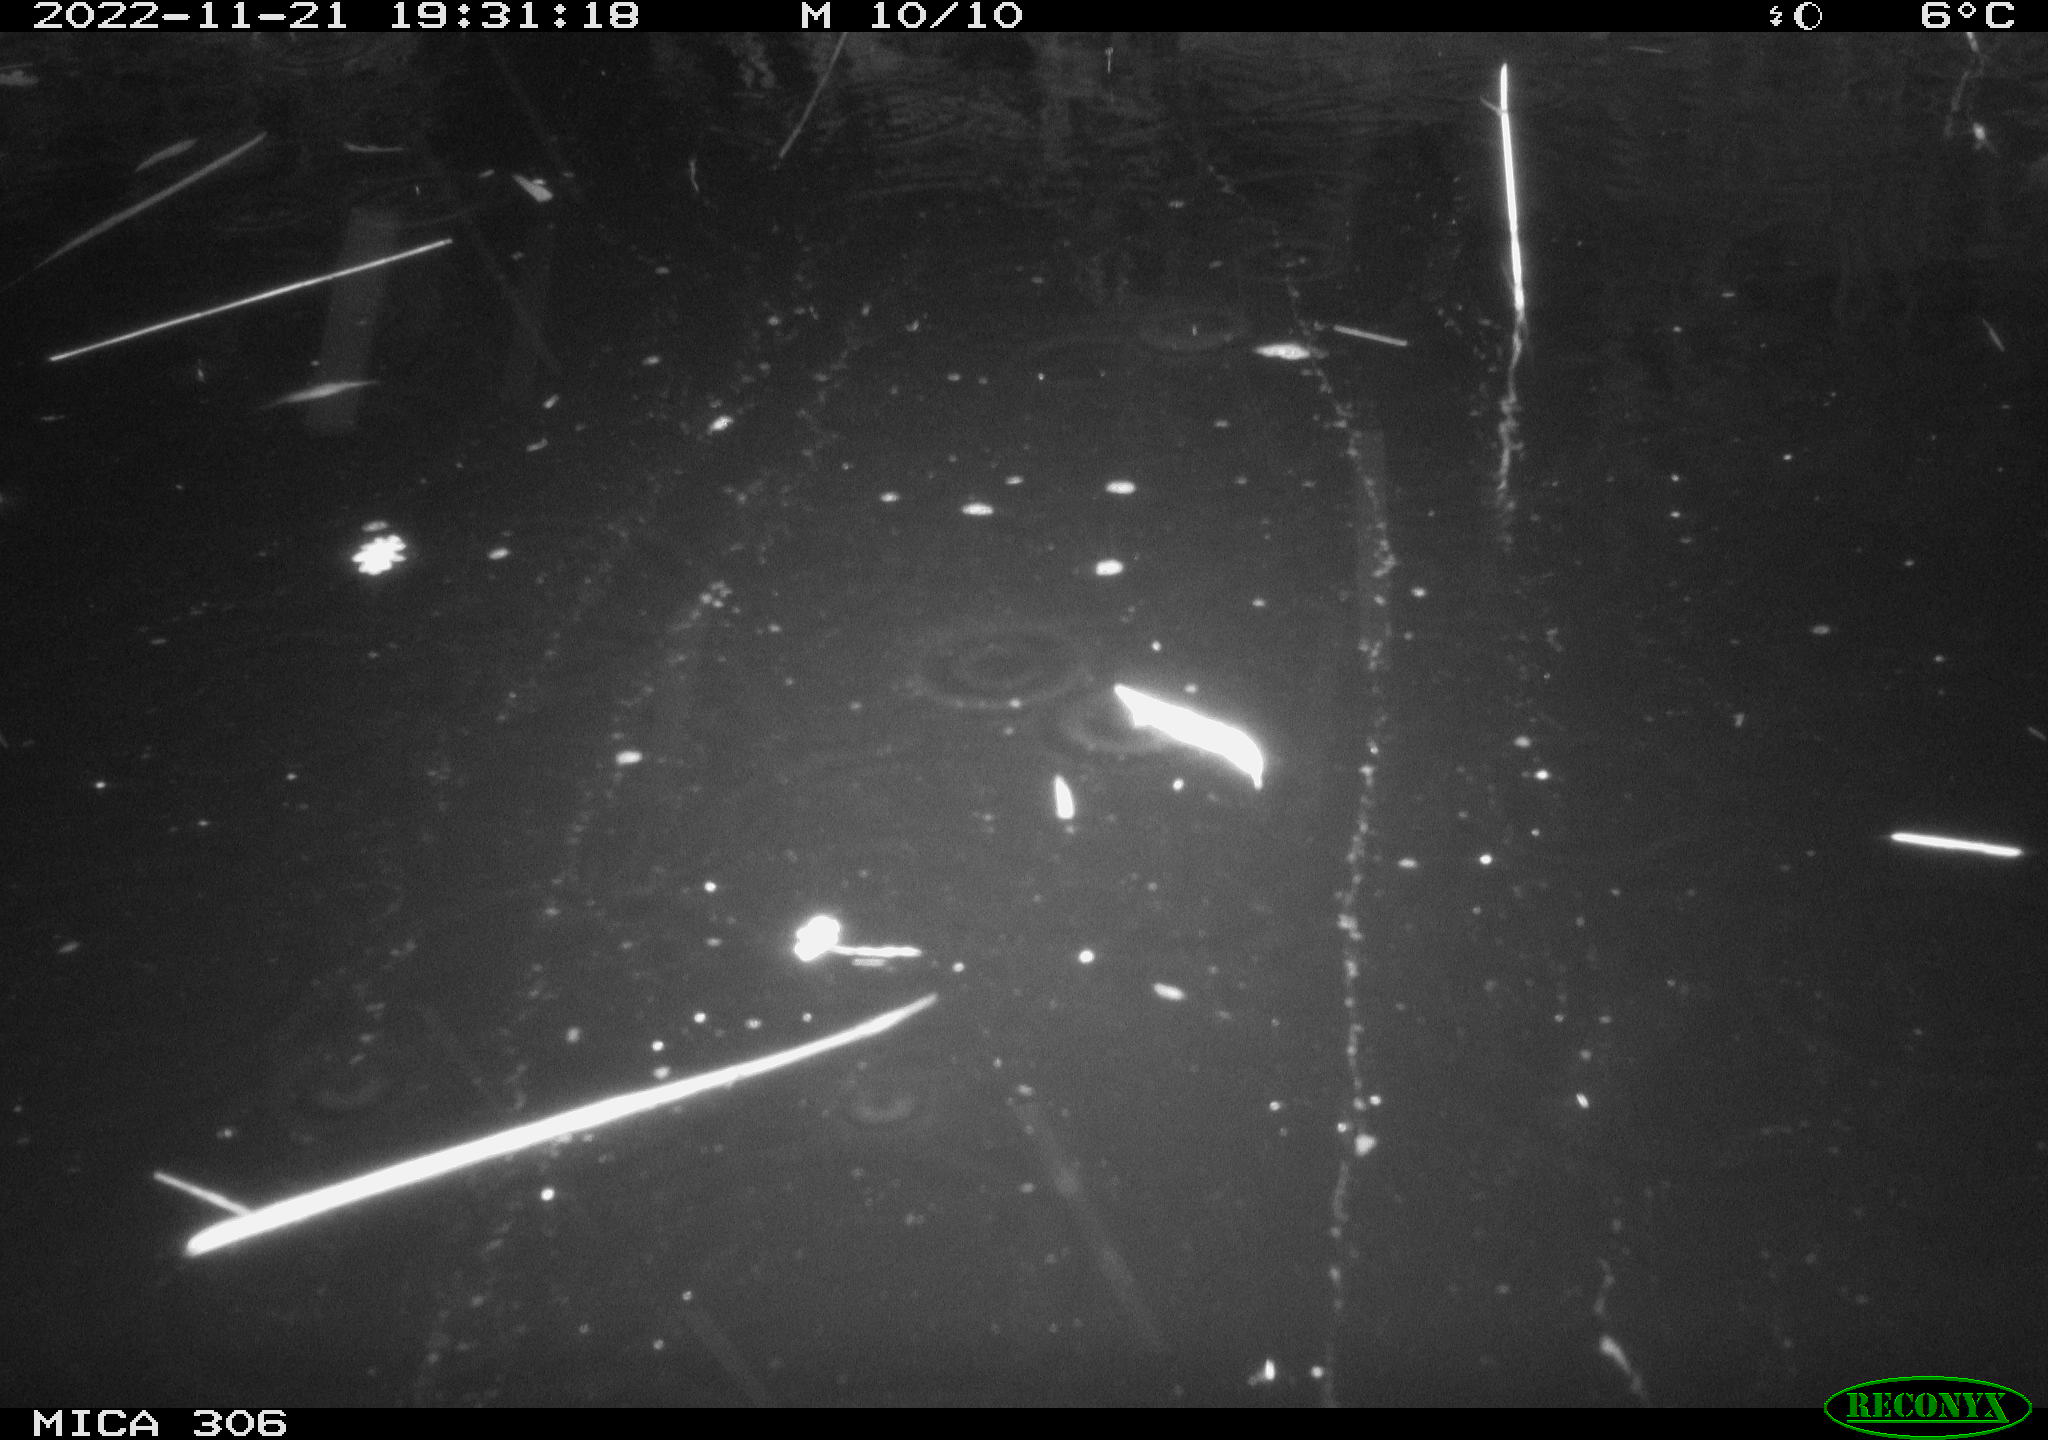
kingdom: Animalia
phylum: Chordata
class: Mammalia
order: Rodentia
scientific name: Rodentia
